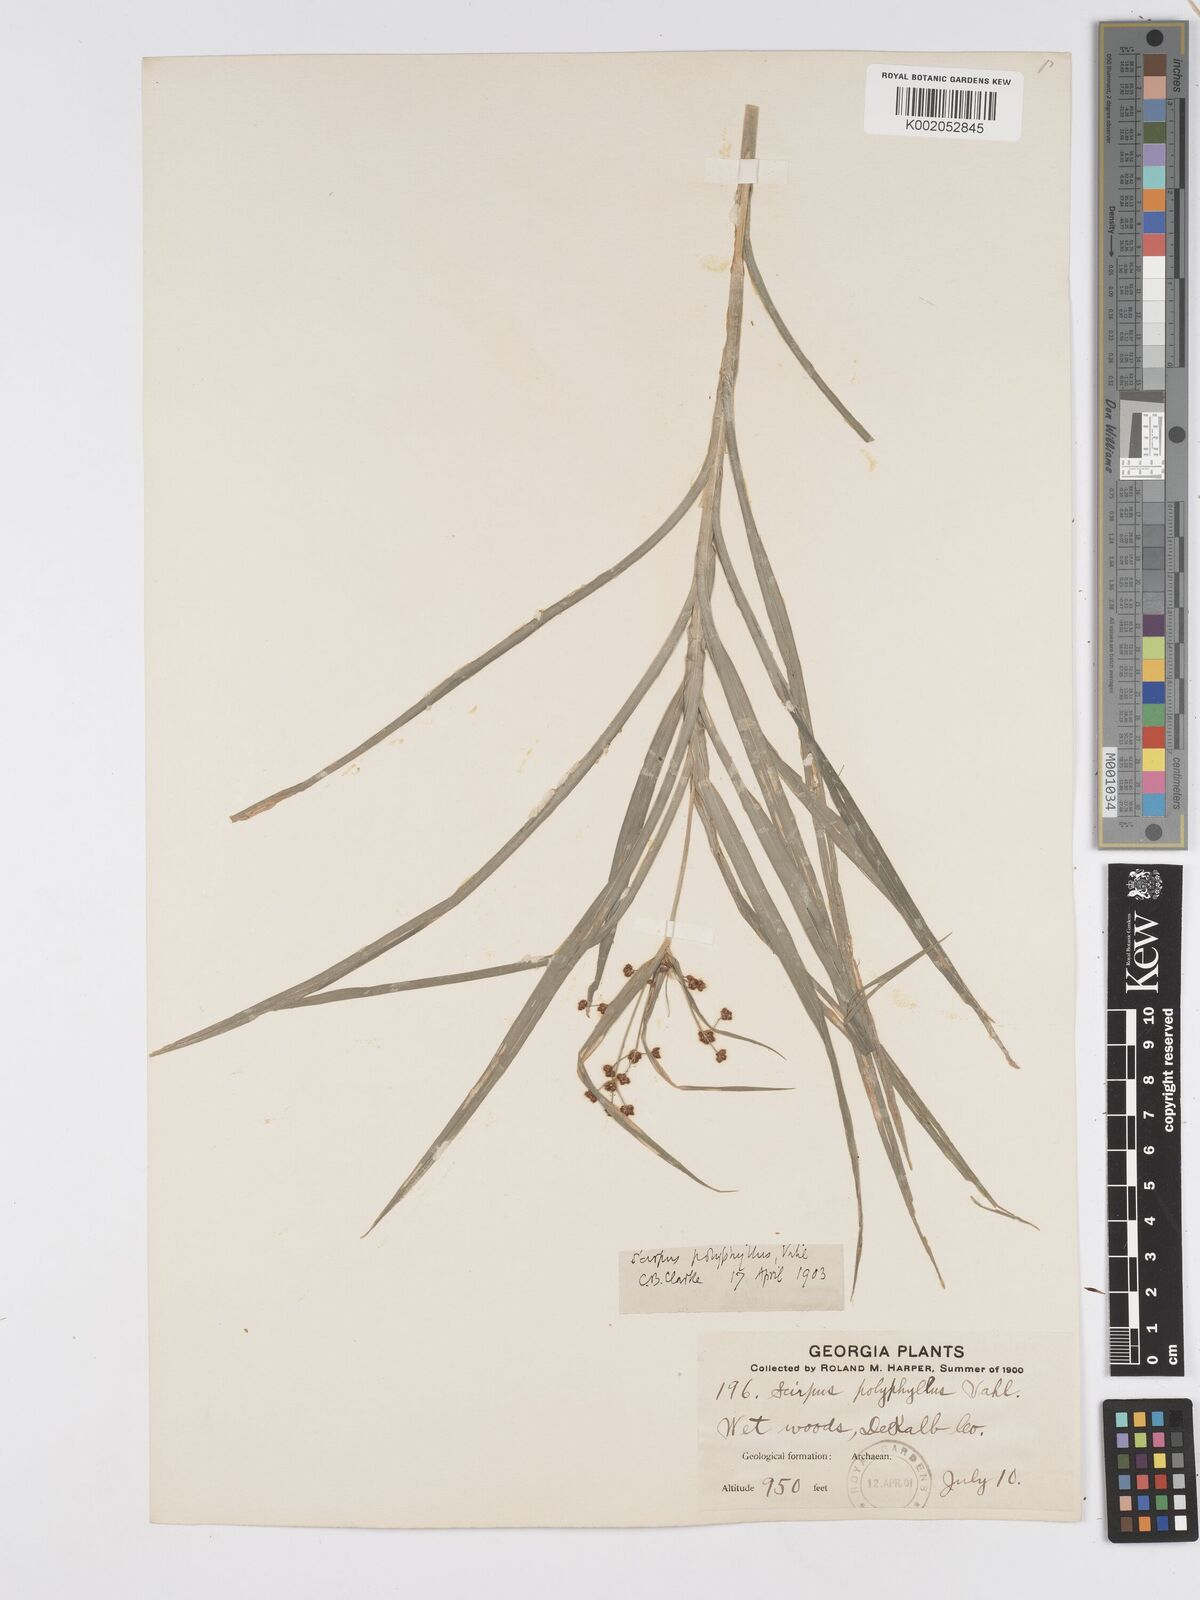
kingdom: Plantae
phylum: Tracheophyta
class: Liliopsida
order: Poales
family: Cyperaceae
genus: Scirpus
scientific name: Scirpus polyphyllus
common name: Leafy bulrush
